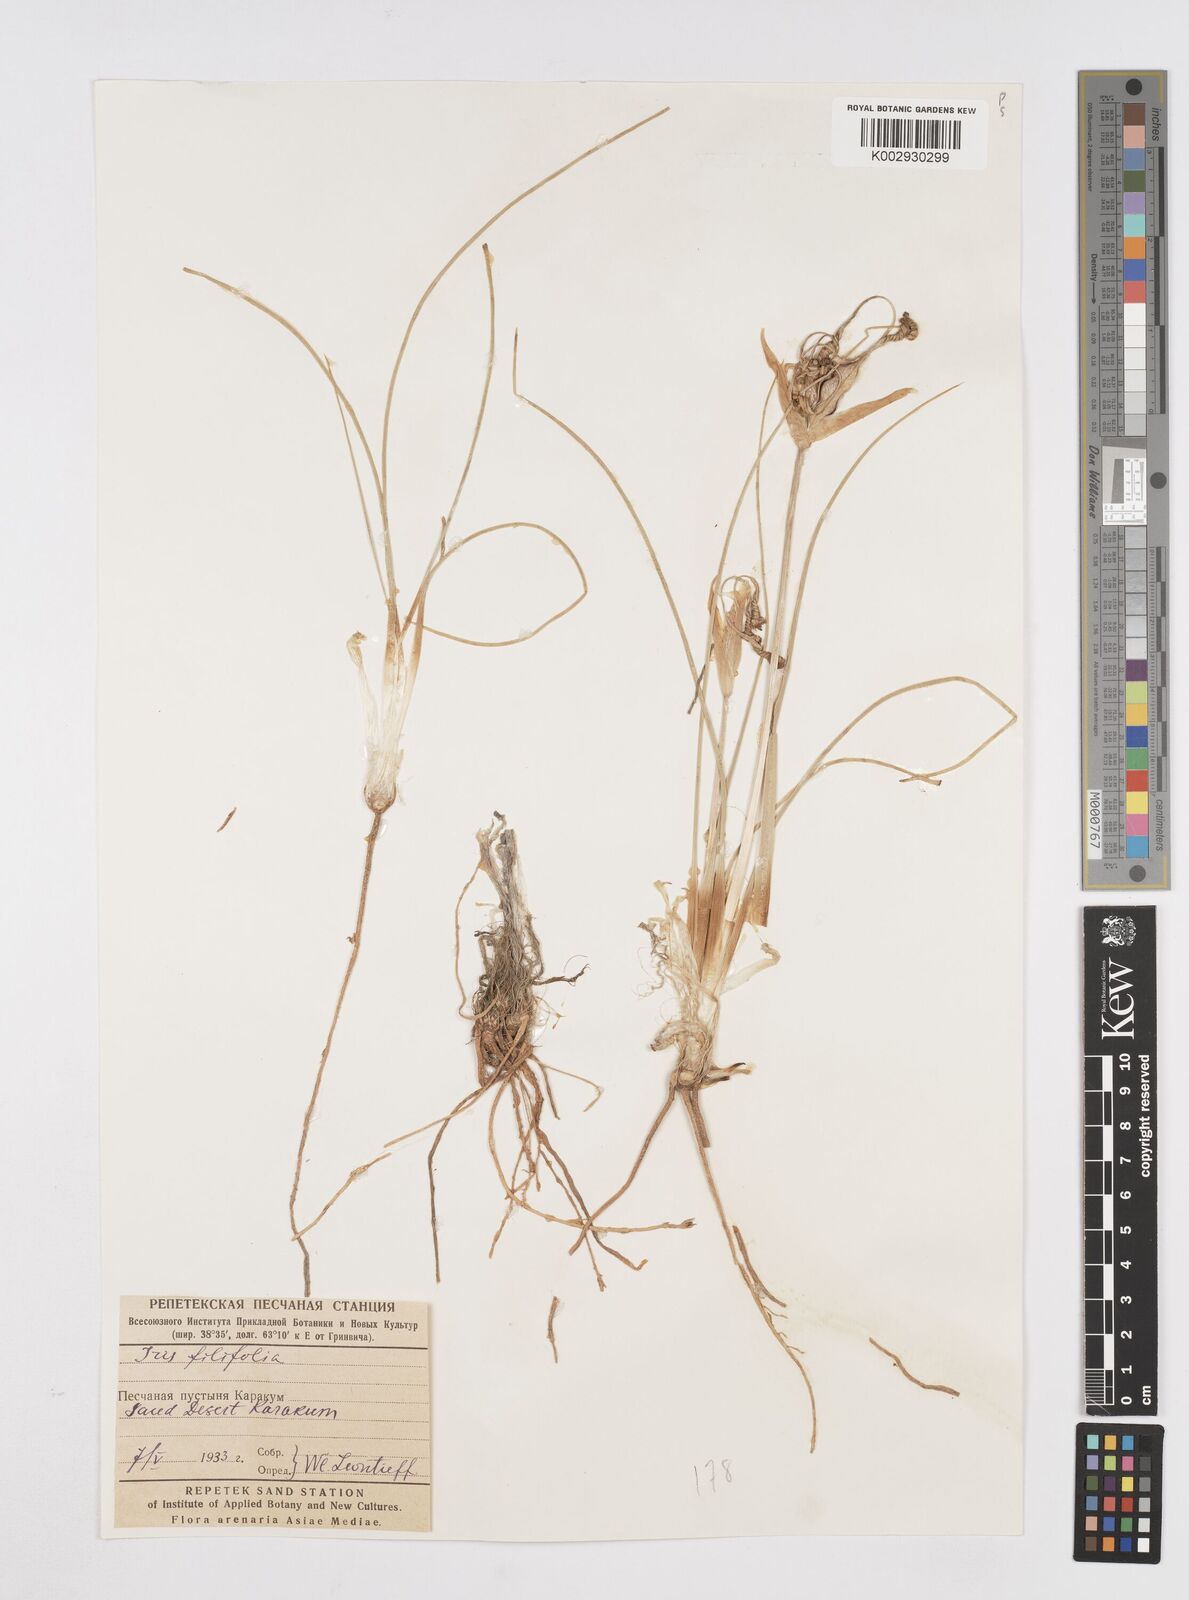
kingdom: Plantae
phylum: Tracheophyta
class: Liliopsida
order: Asparagales
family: Iridaceae
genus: Iris
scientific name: Iris longiscapa
